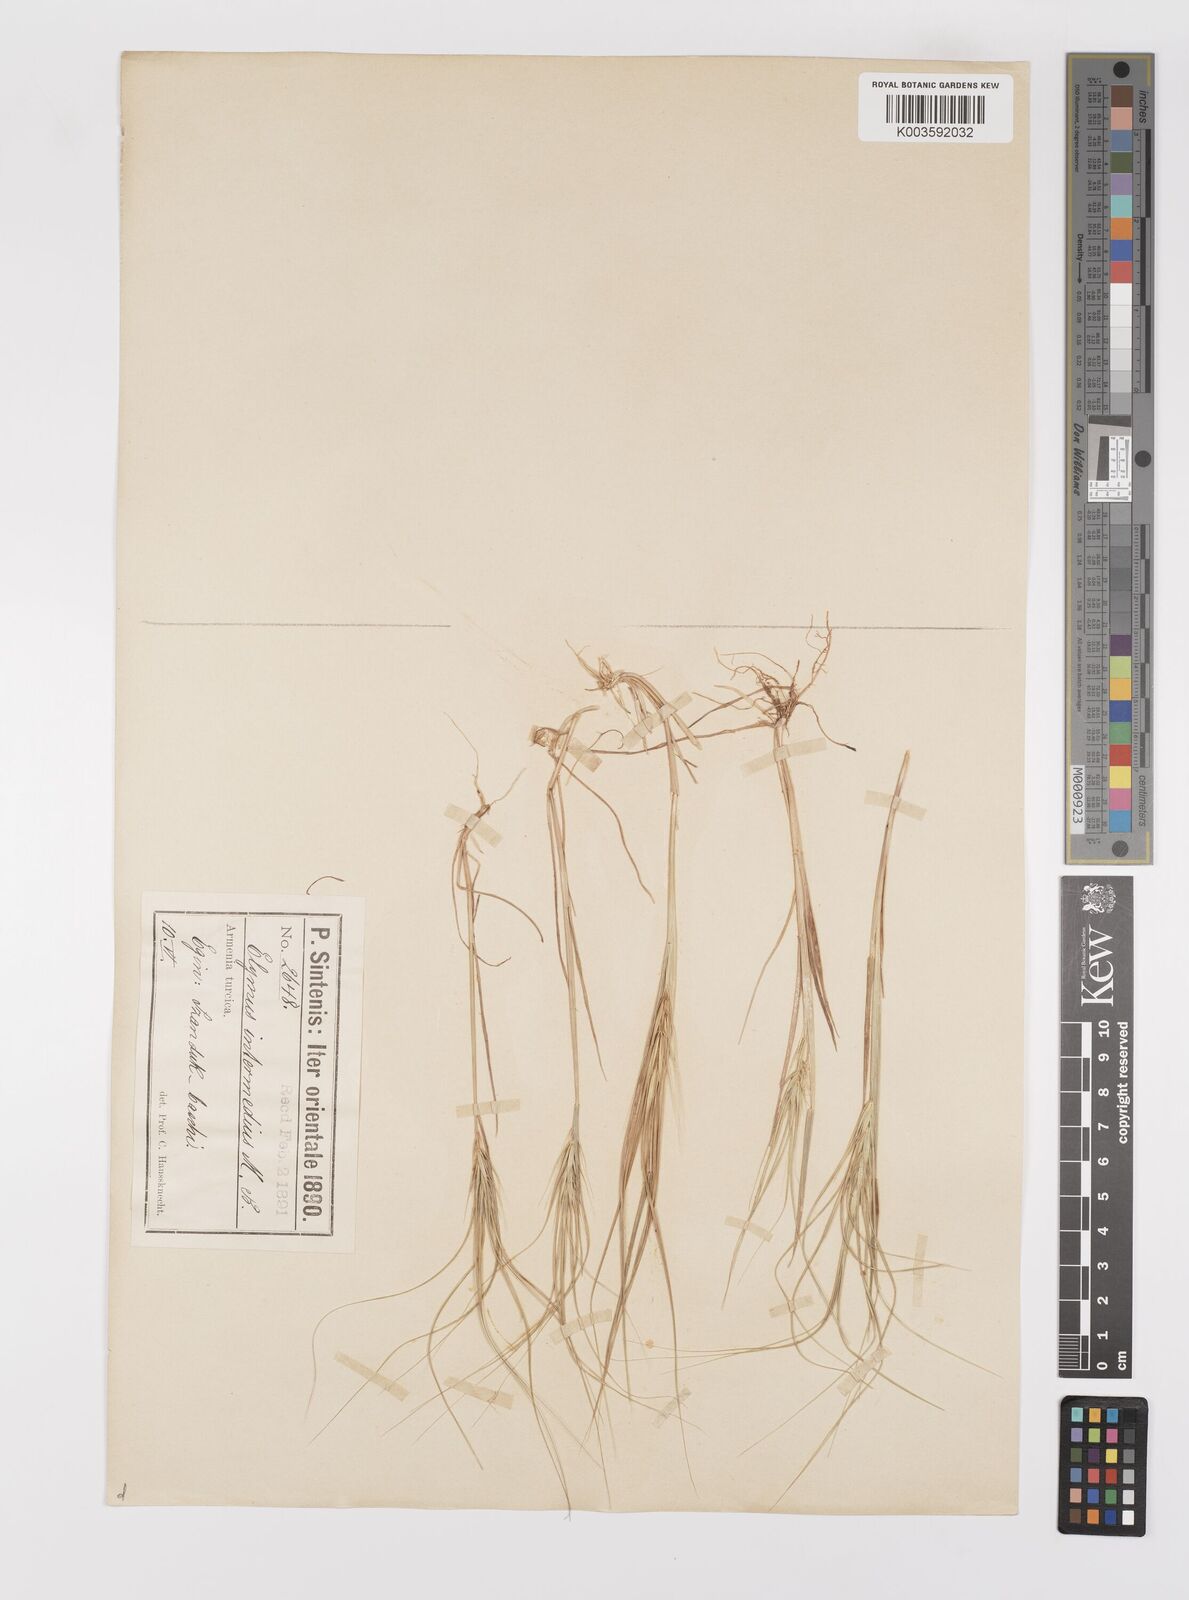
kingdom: Plantae
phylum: Tracheophyta
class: Liliopsida
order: Poales
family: Poaceae
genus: Taeniatherum
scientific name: Taeniatherum caput-medusae
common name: Medusahead
